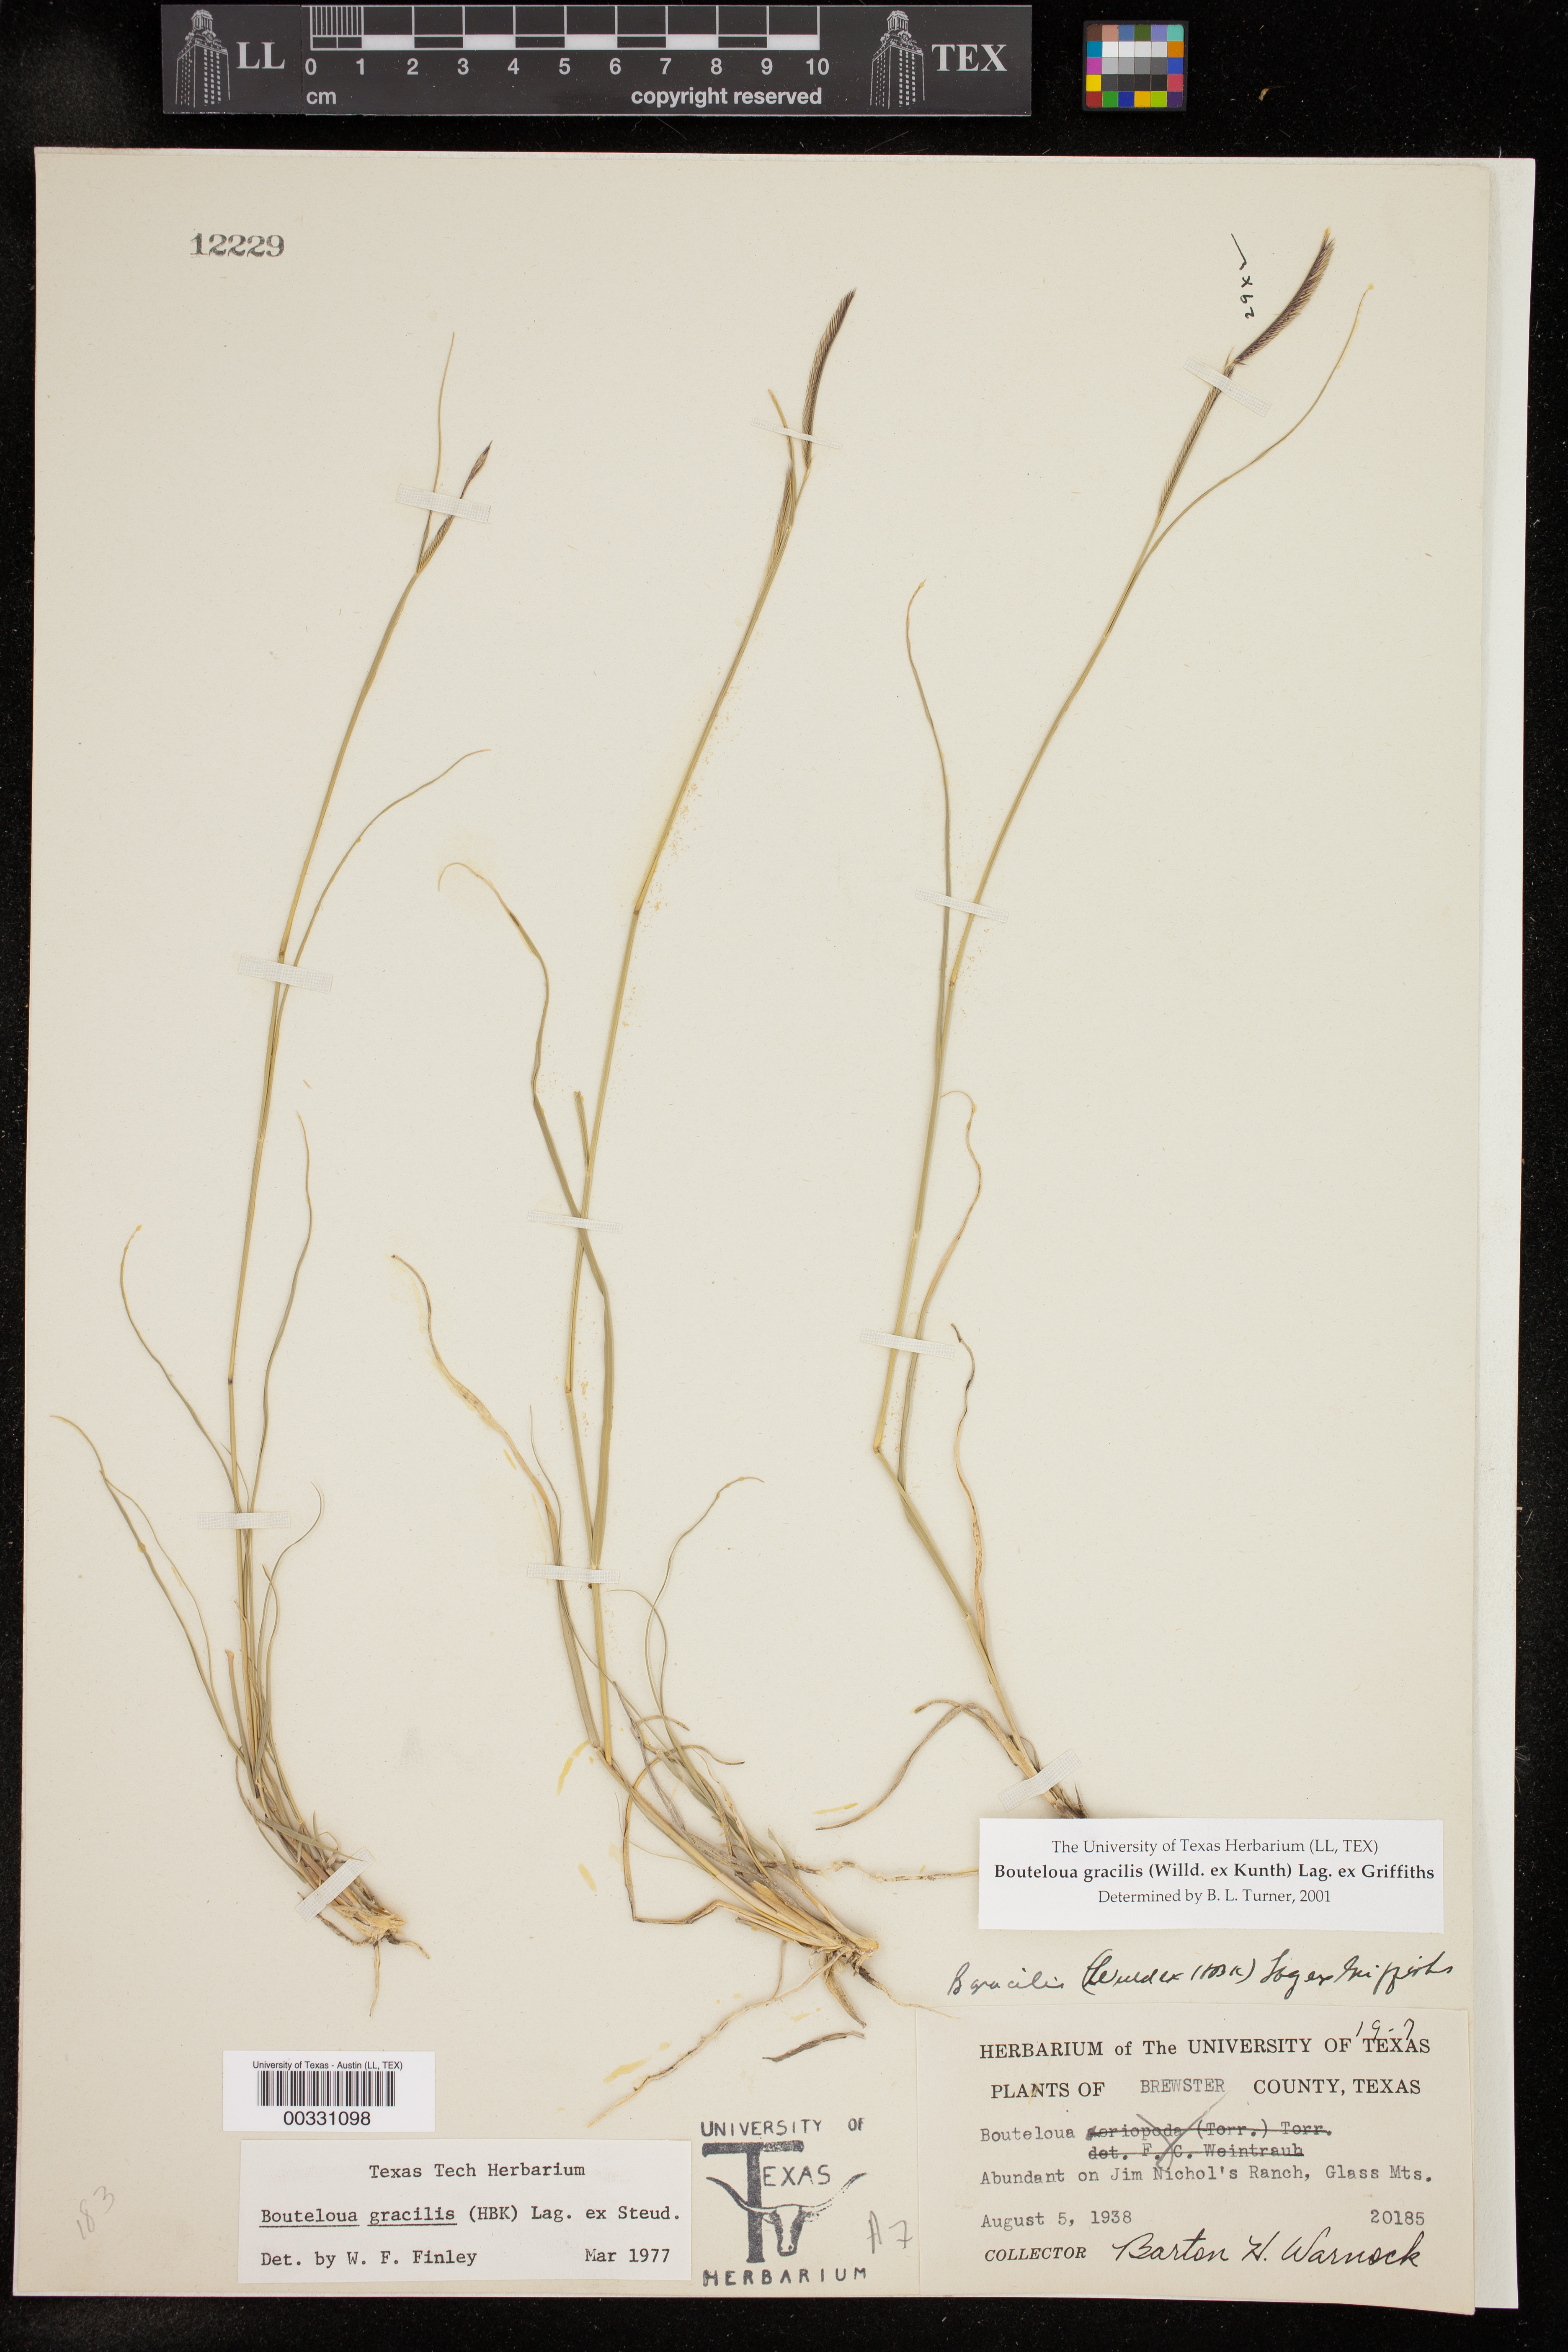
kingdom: Plantae
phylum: Tracheophyta
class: Liliopsida
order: Poales
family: Poaceae
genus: Bouteloua
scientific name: Bouteloua gracilis
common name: Blue grama
